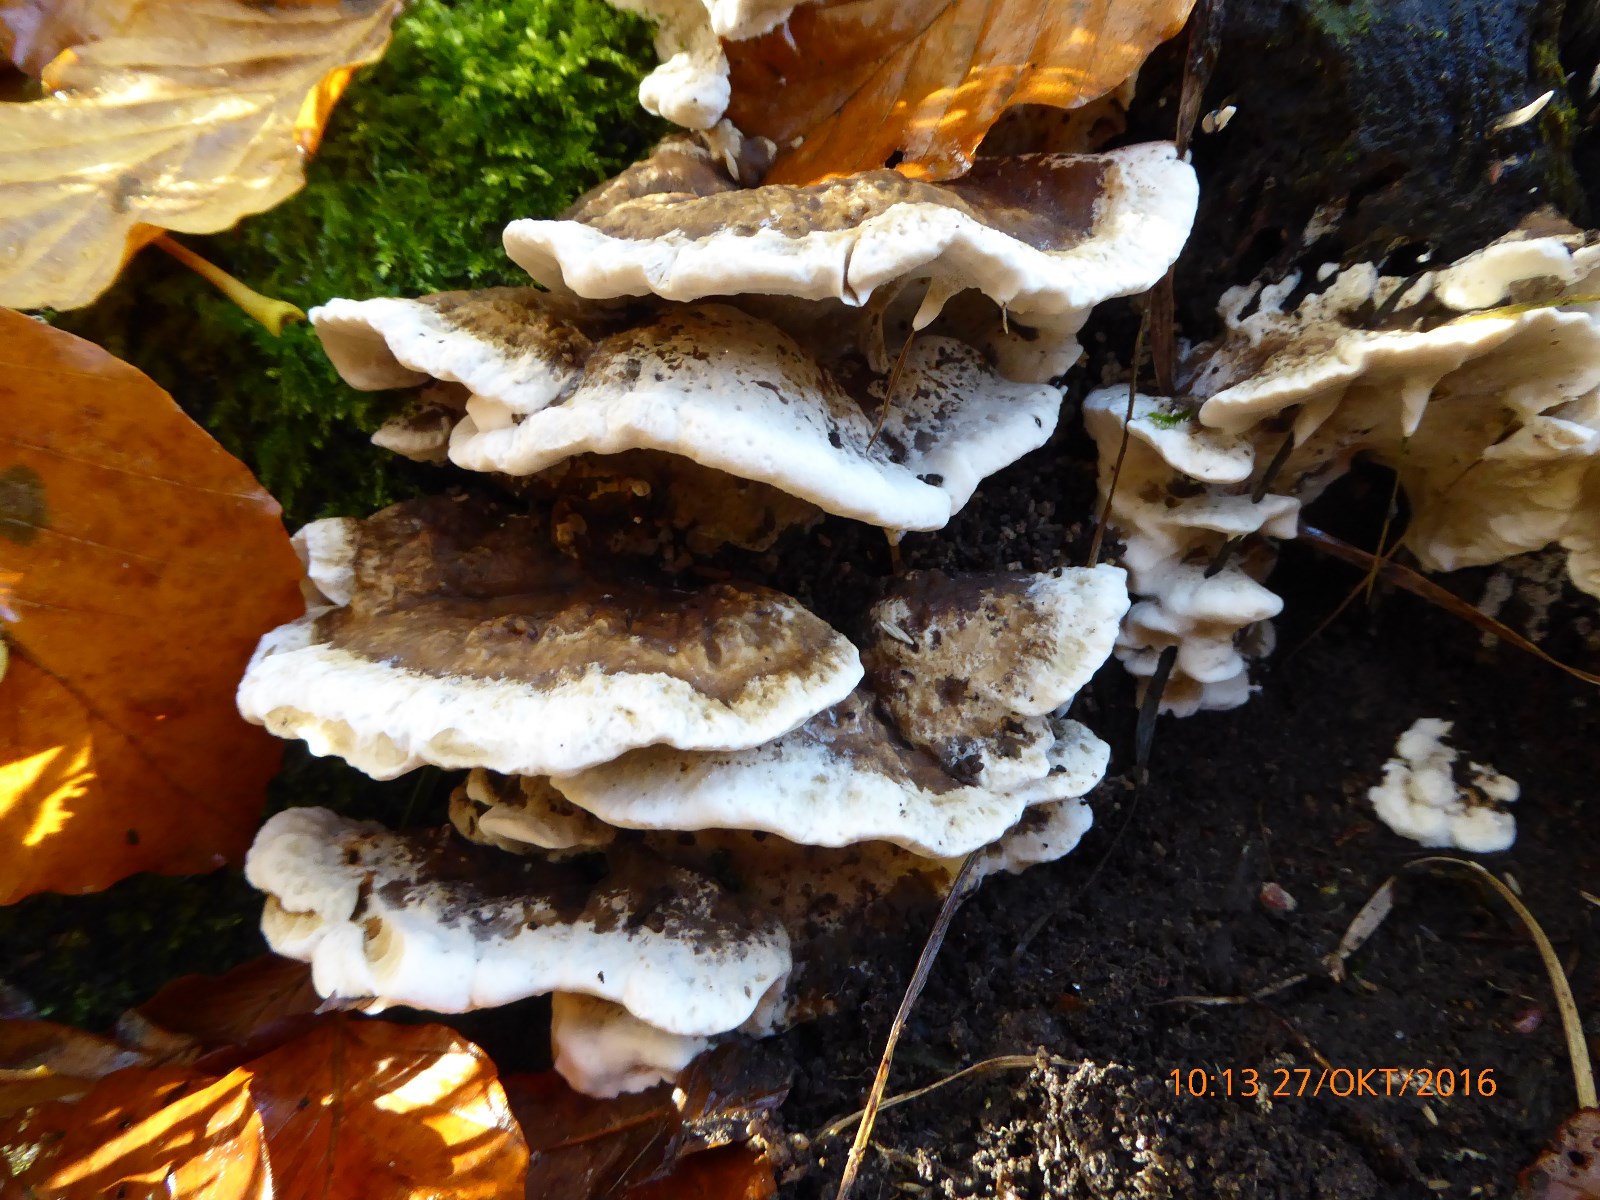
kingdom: Fungi
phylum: Basidiomycota
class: Agaricomycetes
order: Polyporales
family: Phanerochaetaceae
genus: Bjerkandera
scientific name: Bjerkandera fumosa
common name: grågul sodporesvamp
